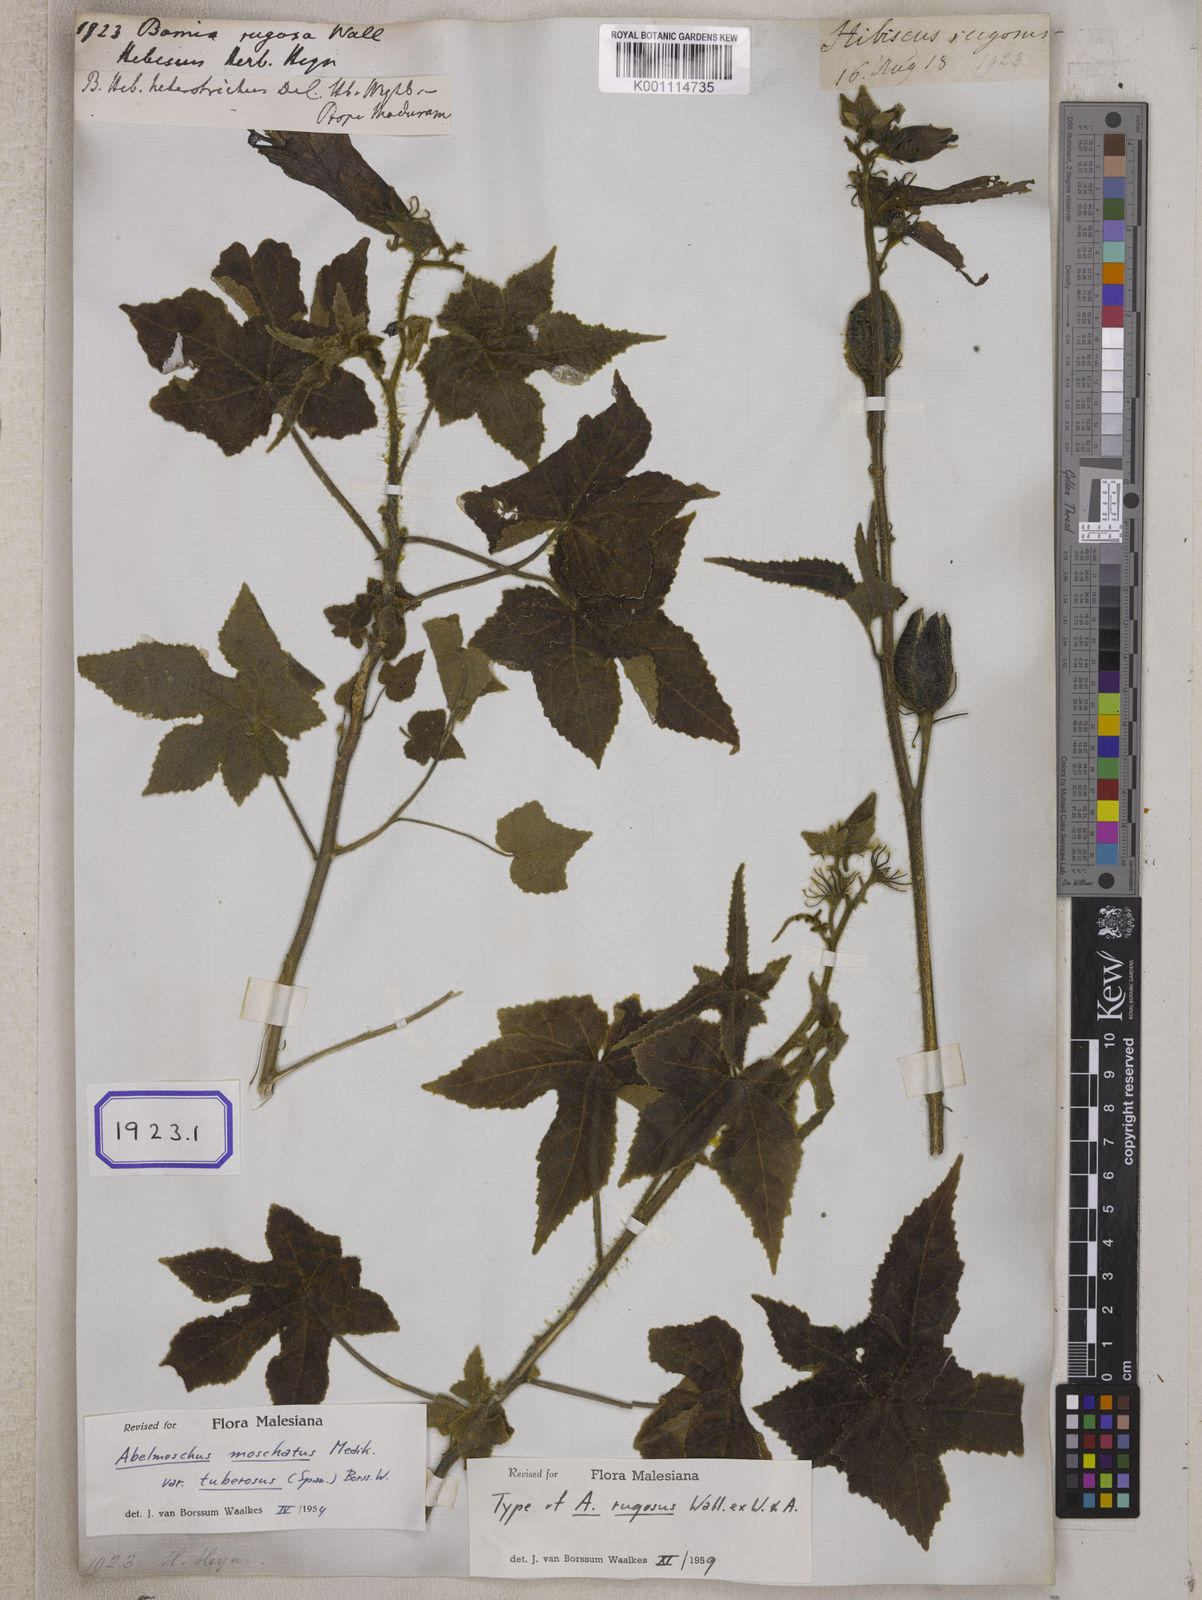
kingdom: Plantae
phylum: Tracheophyta
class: Magnoliopsida
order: Malvales
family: Malvaceae
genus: Bamia
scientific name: Bamia
